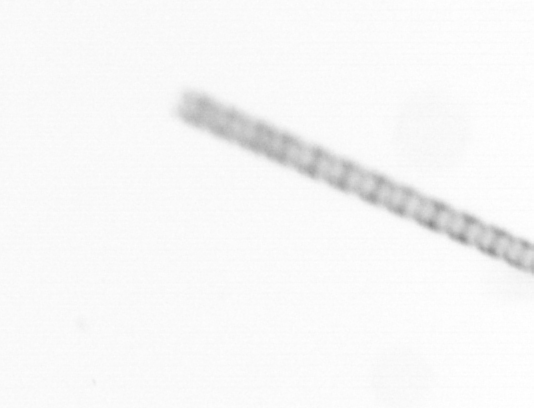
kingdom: Chromista
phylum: Ochrophyta
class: Bacillariophyceae
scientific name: Bacillariophyceae
